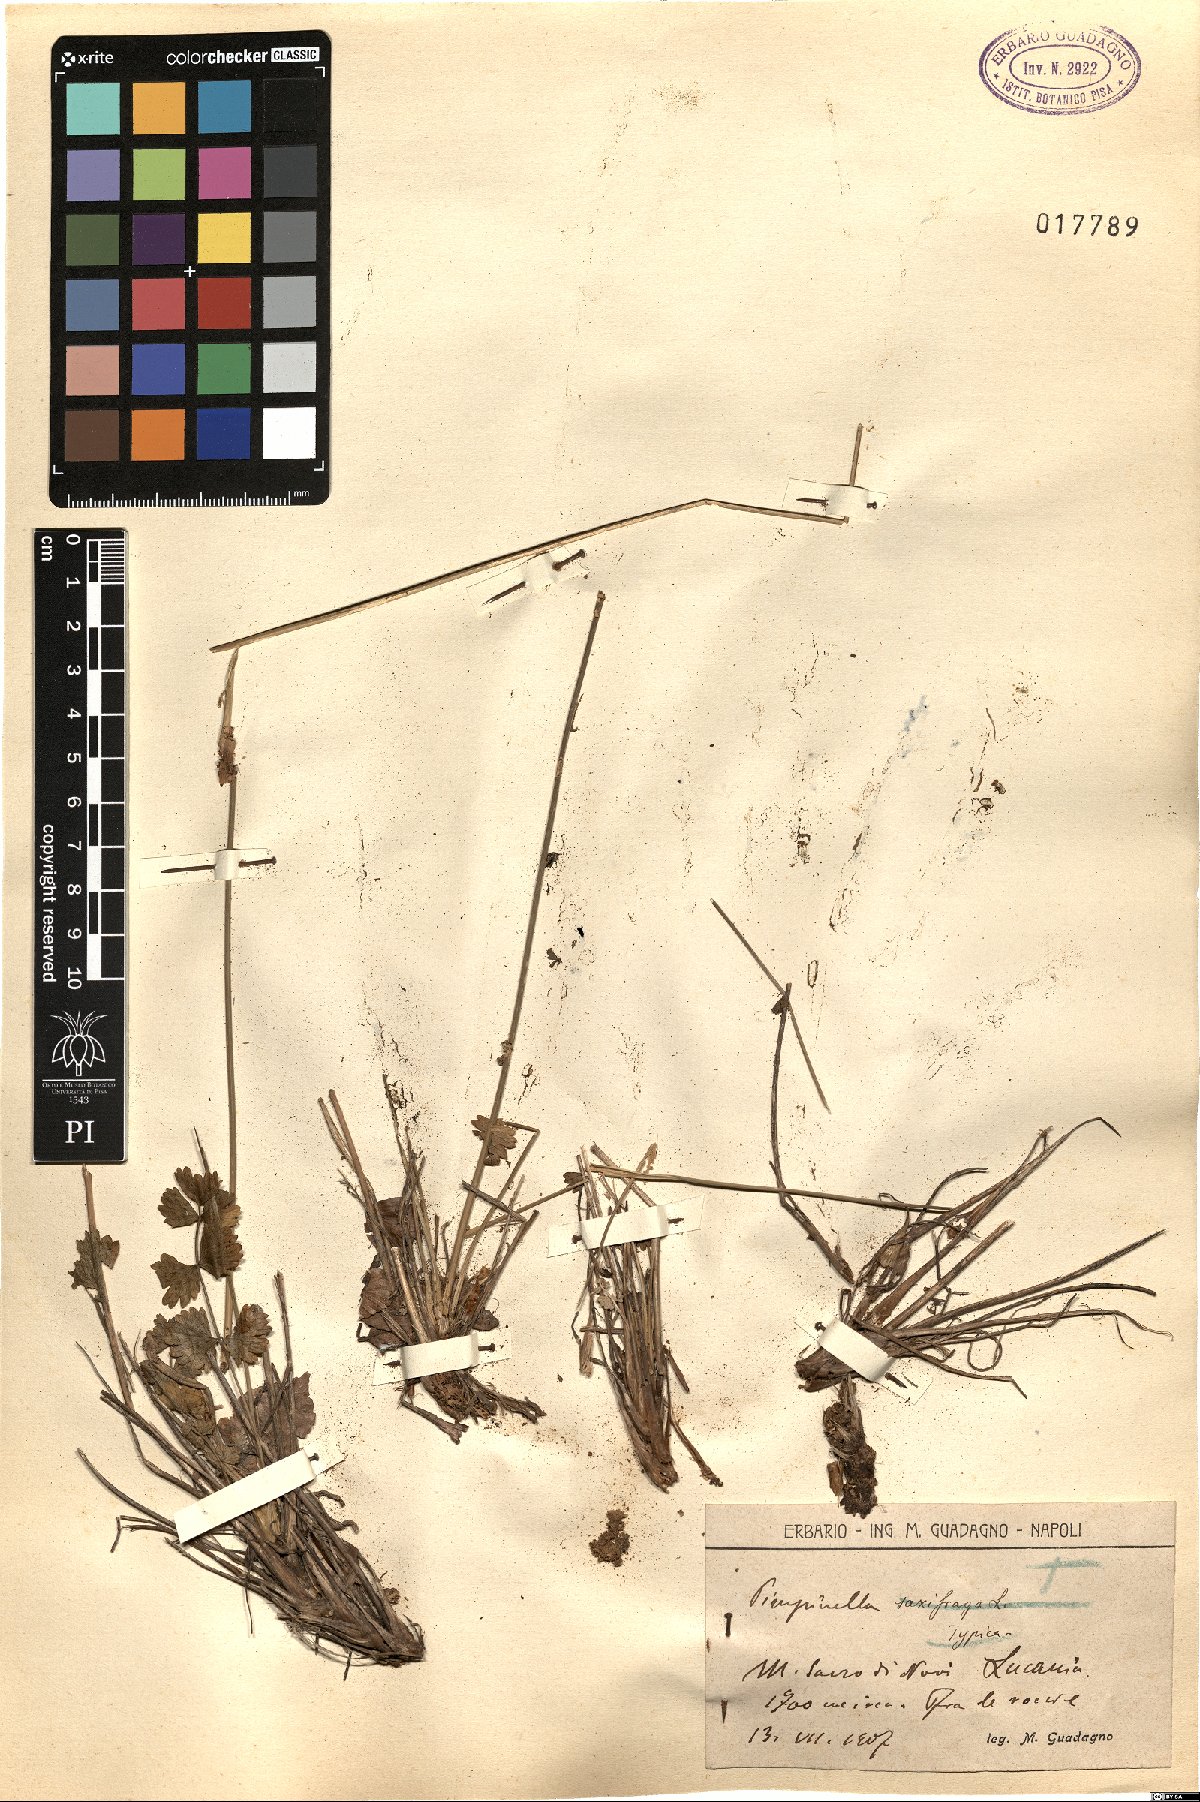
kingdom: Plantae
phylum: Tracheophyta
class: Magnoliopsida
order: Apiales
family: Apiaceae
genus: Pimpinella
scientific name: Pimpinella
